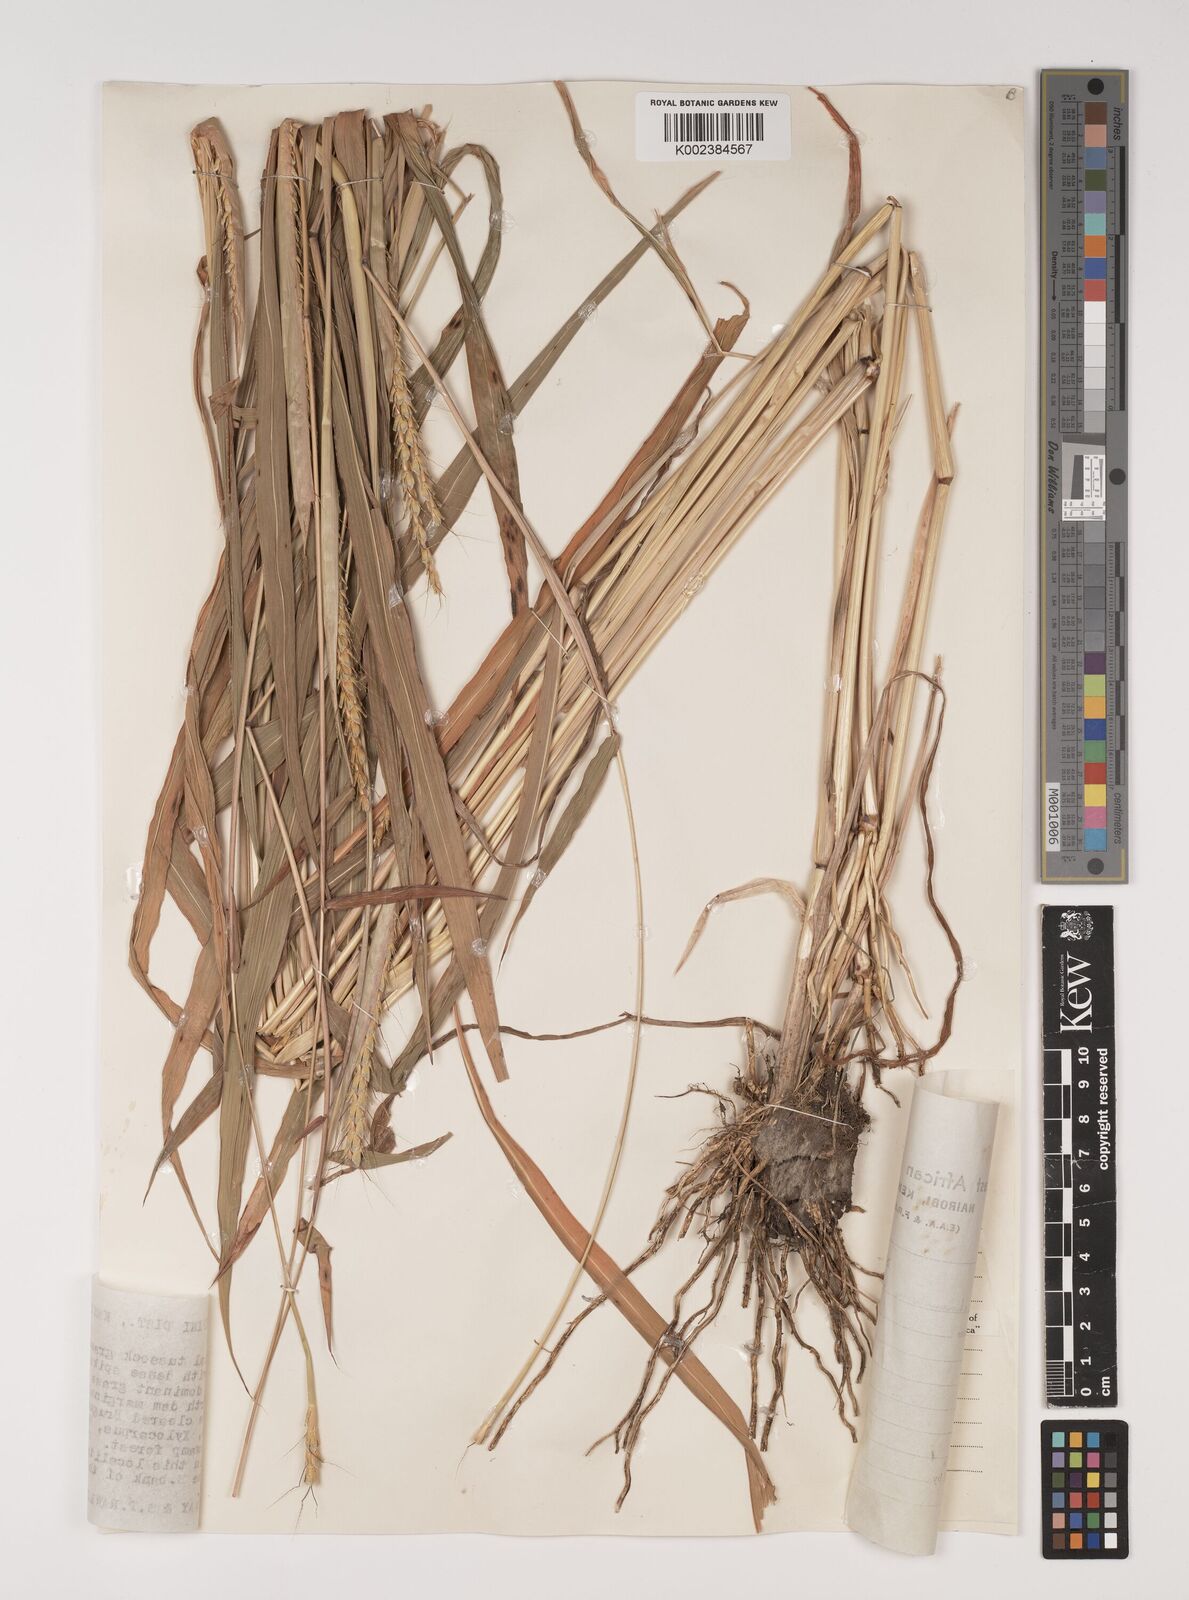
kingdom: Plantae
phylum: Tracheophyta
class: Liliopsida
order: Poales
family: Poaceae
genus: Ischaemum
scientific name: Ischaemum rugosum
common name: Saramatta grass
